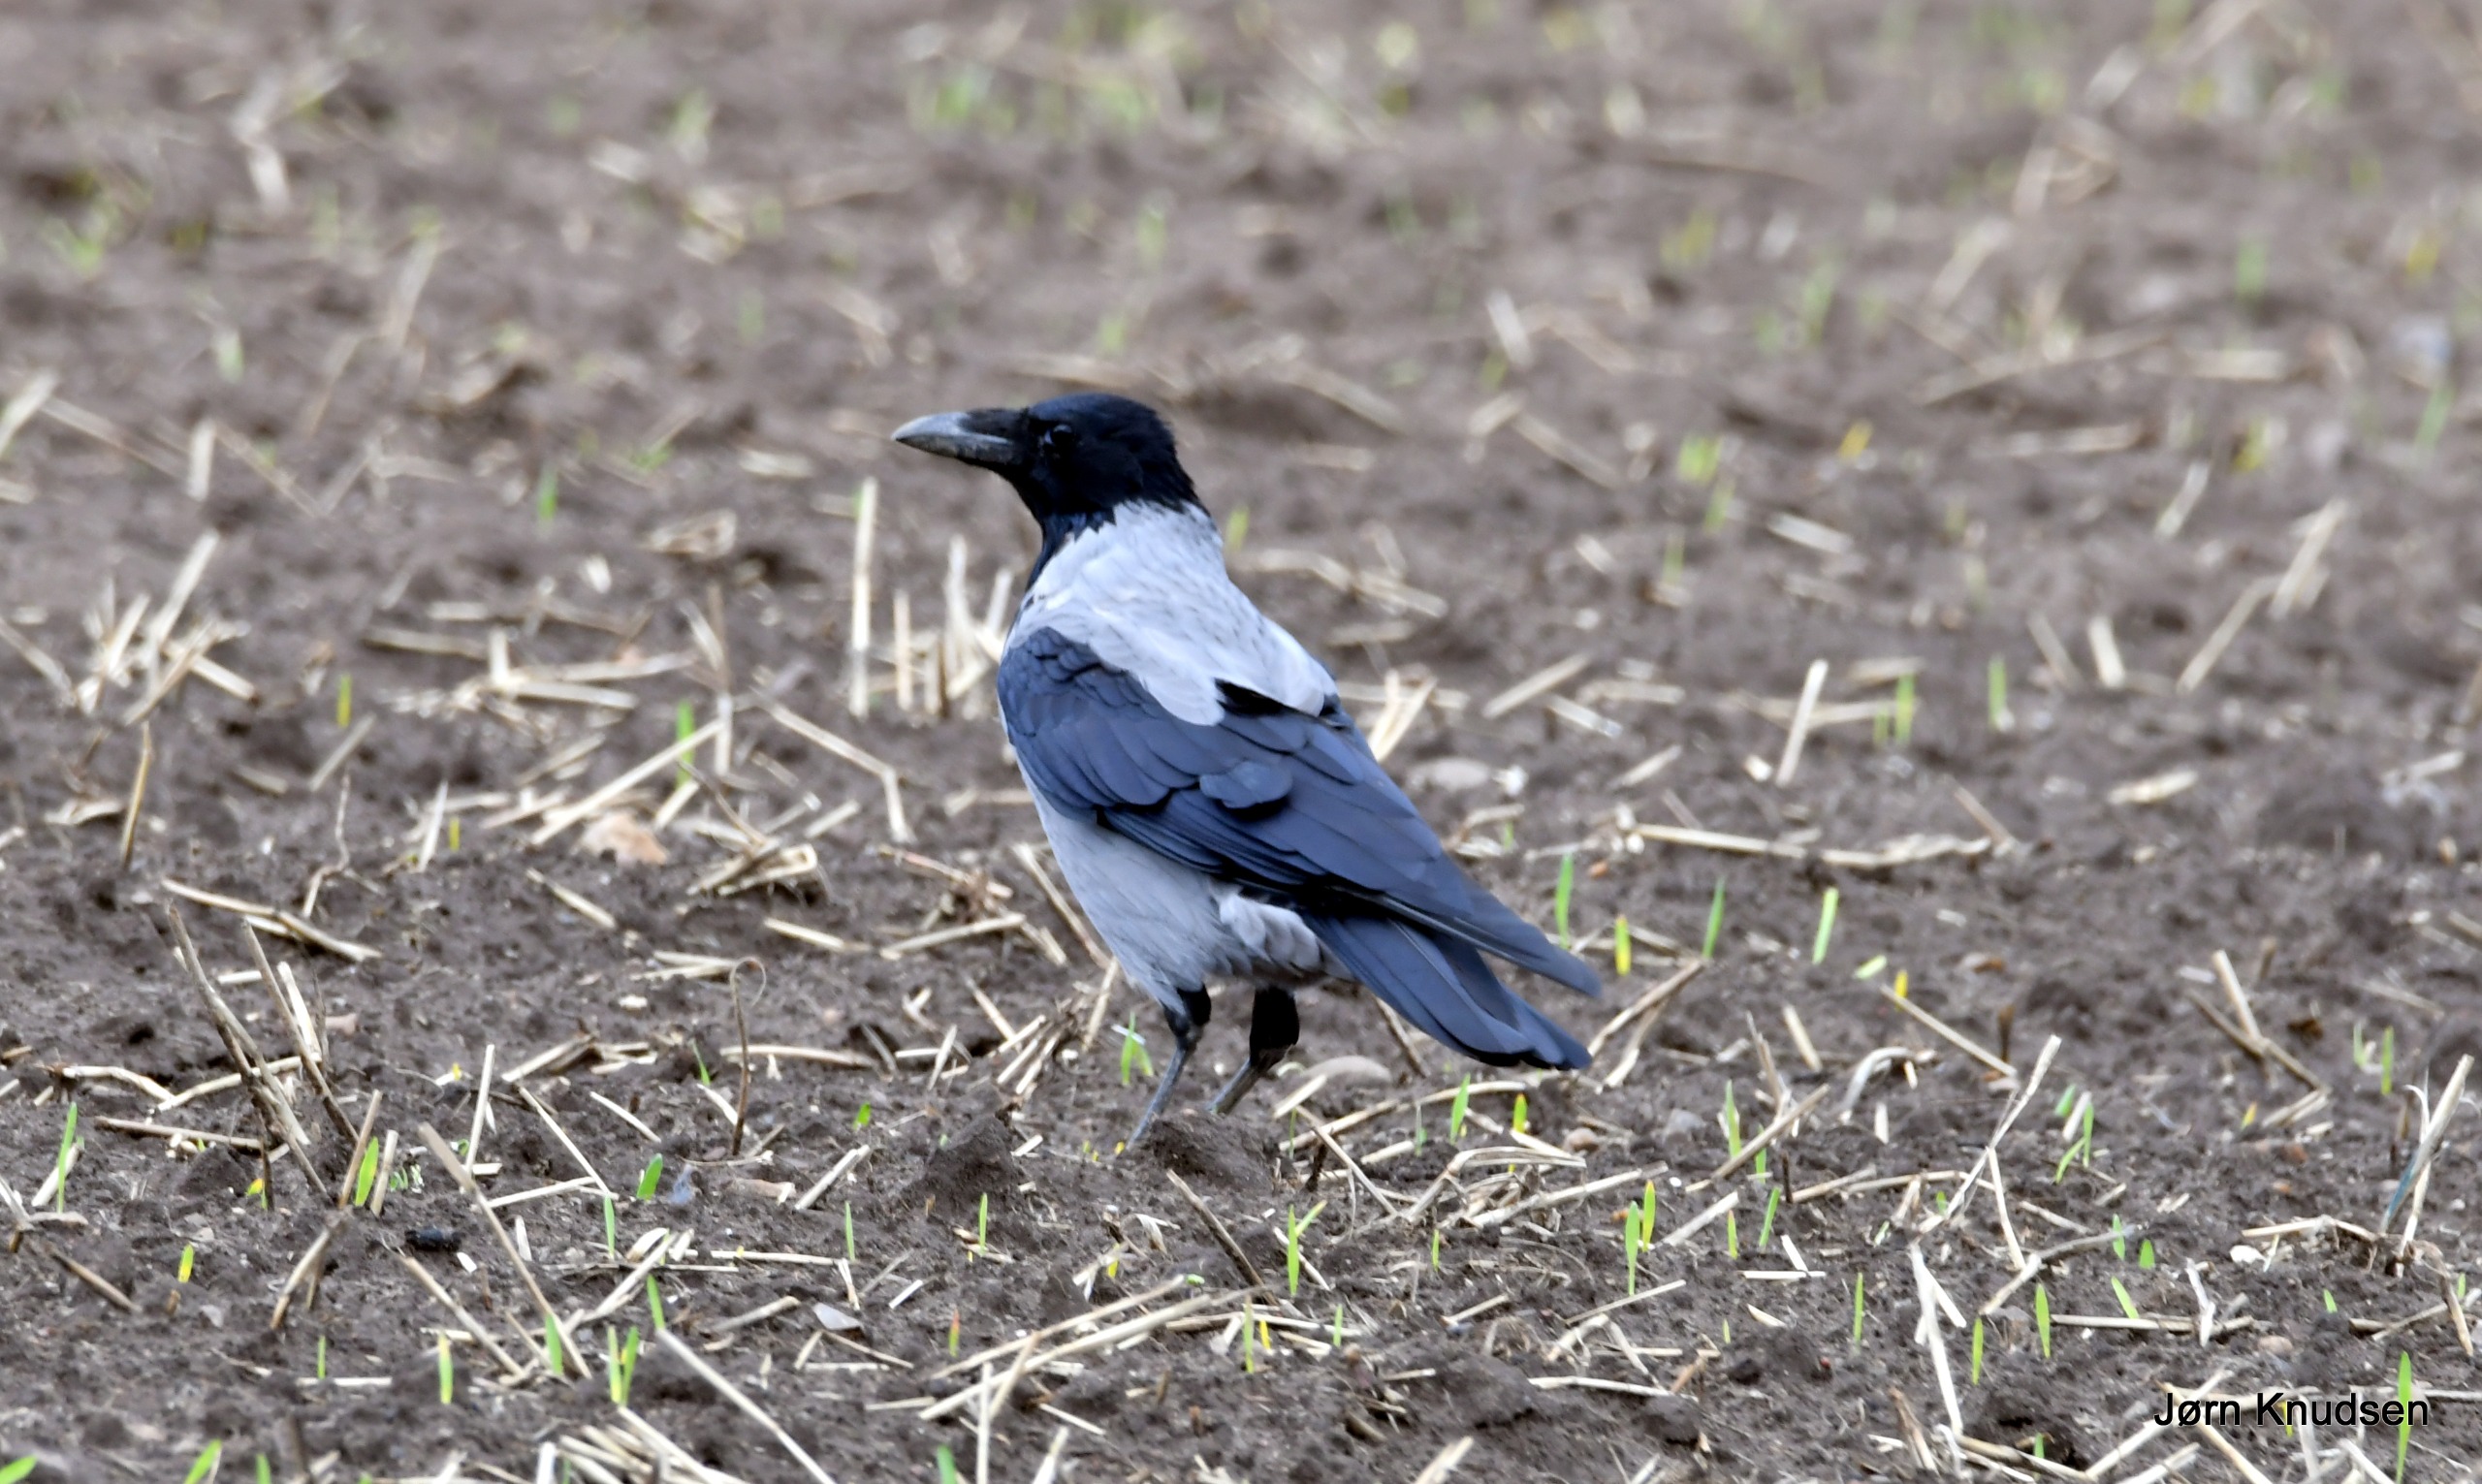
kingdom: Animalia
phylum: Chordata
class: Aves
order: Passeriformes
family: Corvidae
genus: Corvus
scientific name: Corvus cornix
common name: Gråkrage
